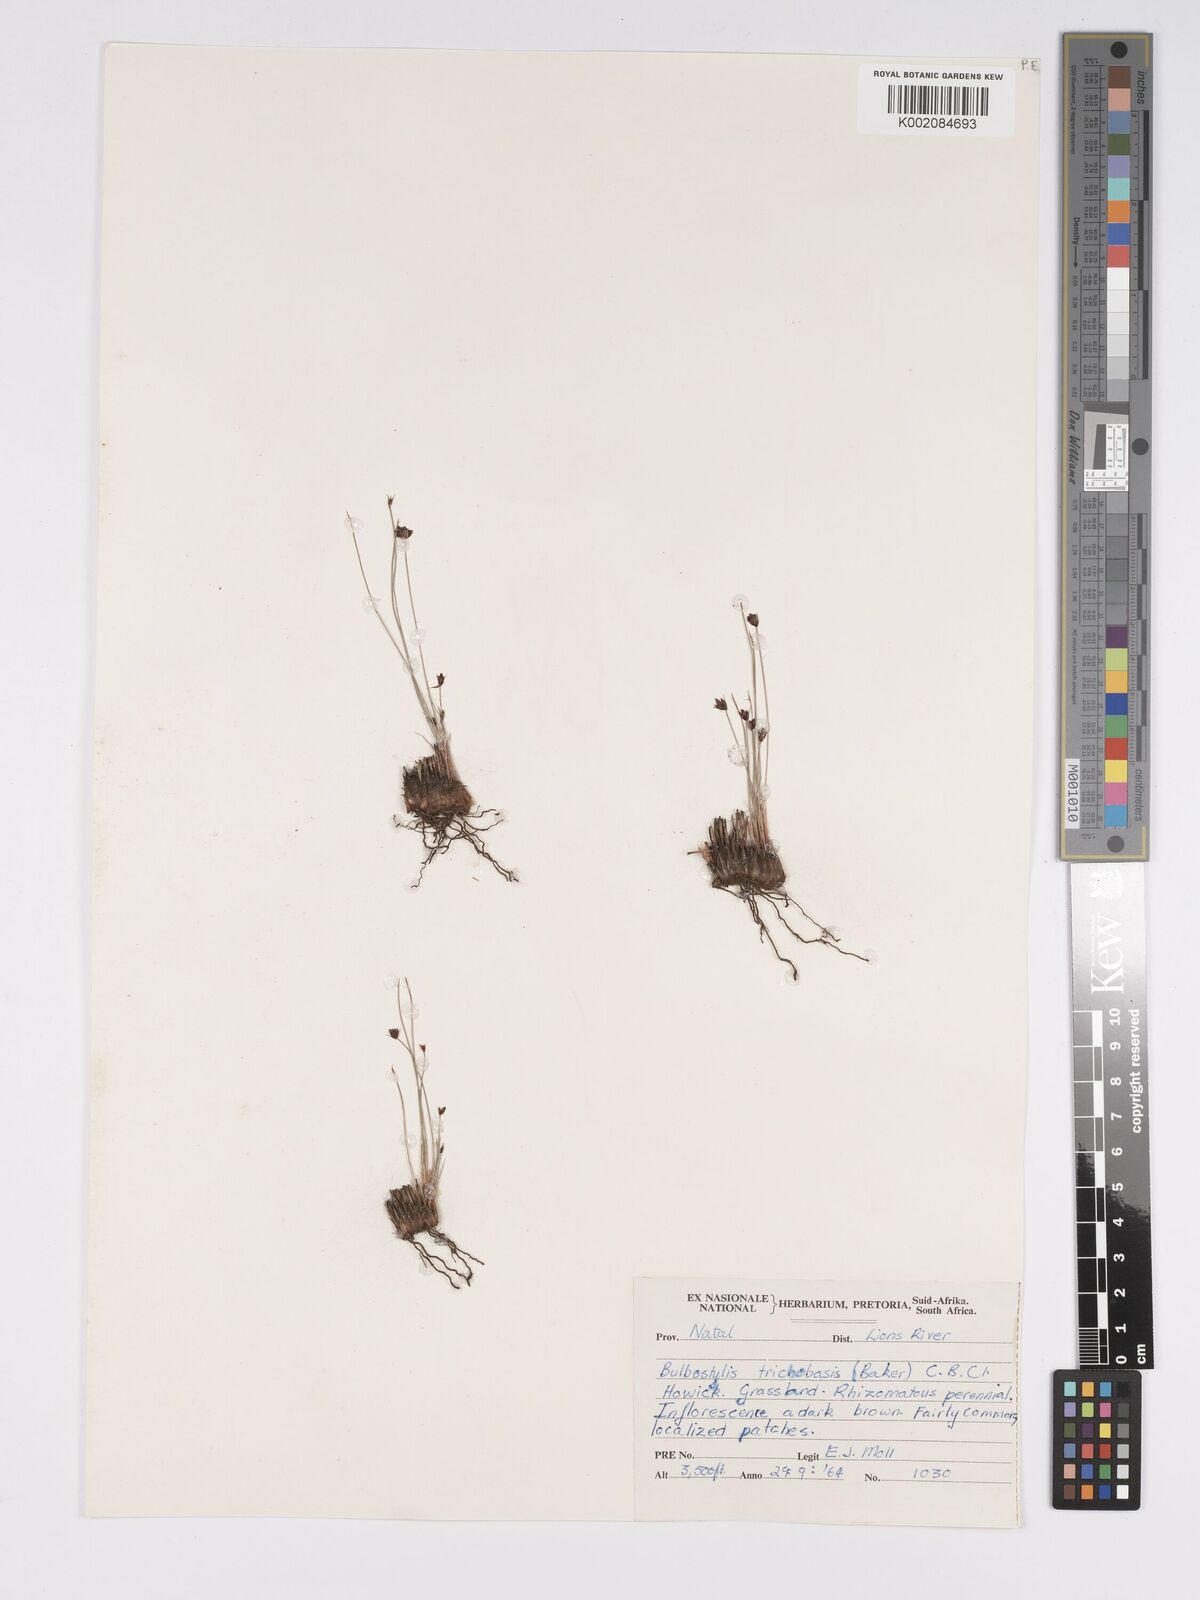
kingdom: Plantae
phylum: Tracheophyta
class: Liliopsida
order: Poales
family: Cyperaceae
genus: Bulbostylis
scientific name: Bulbostylis trichobasis
